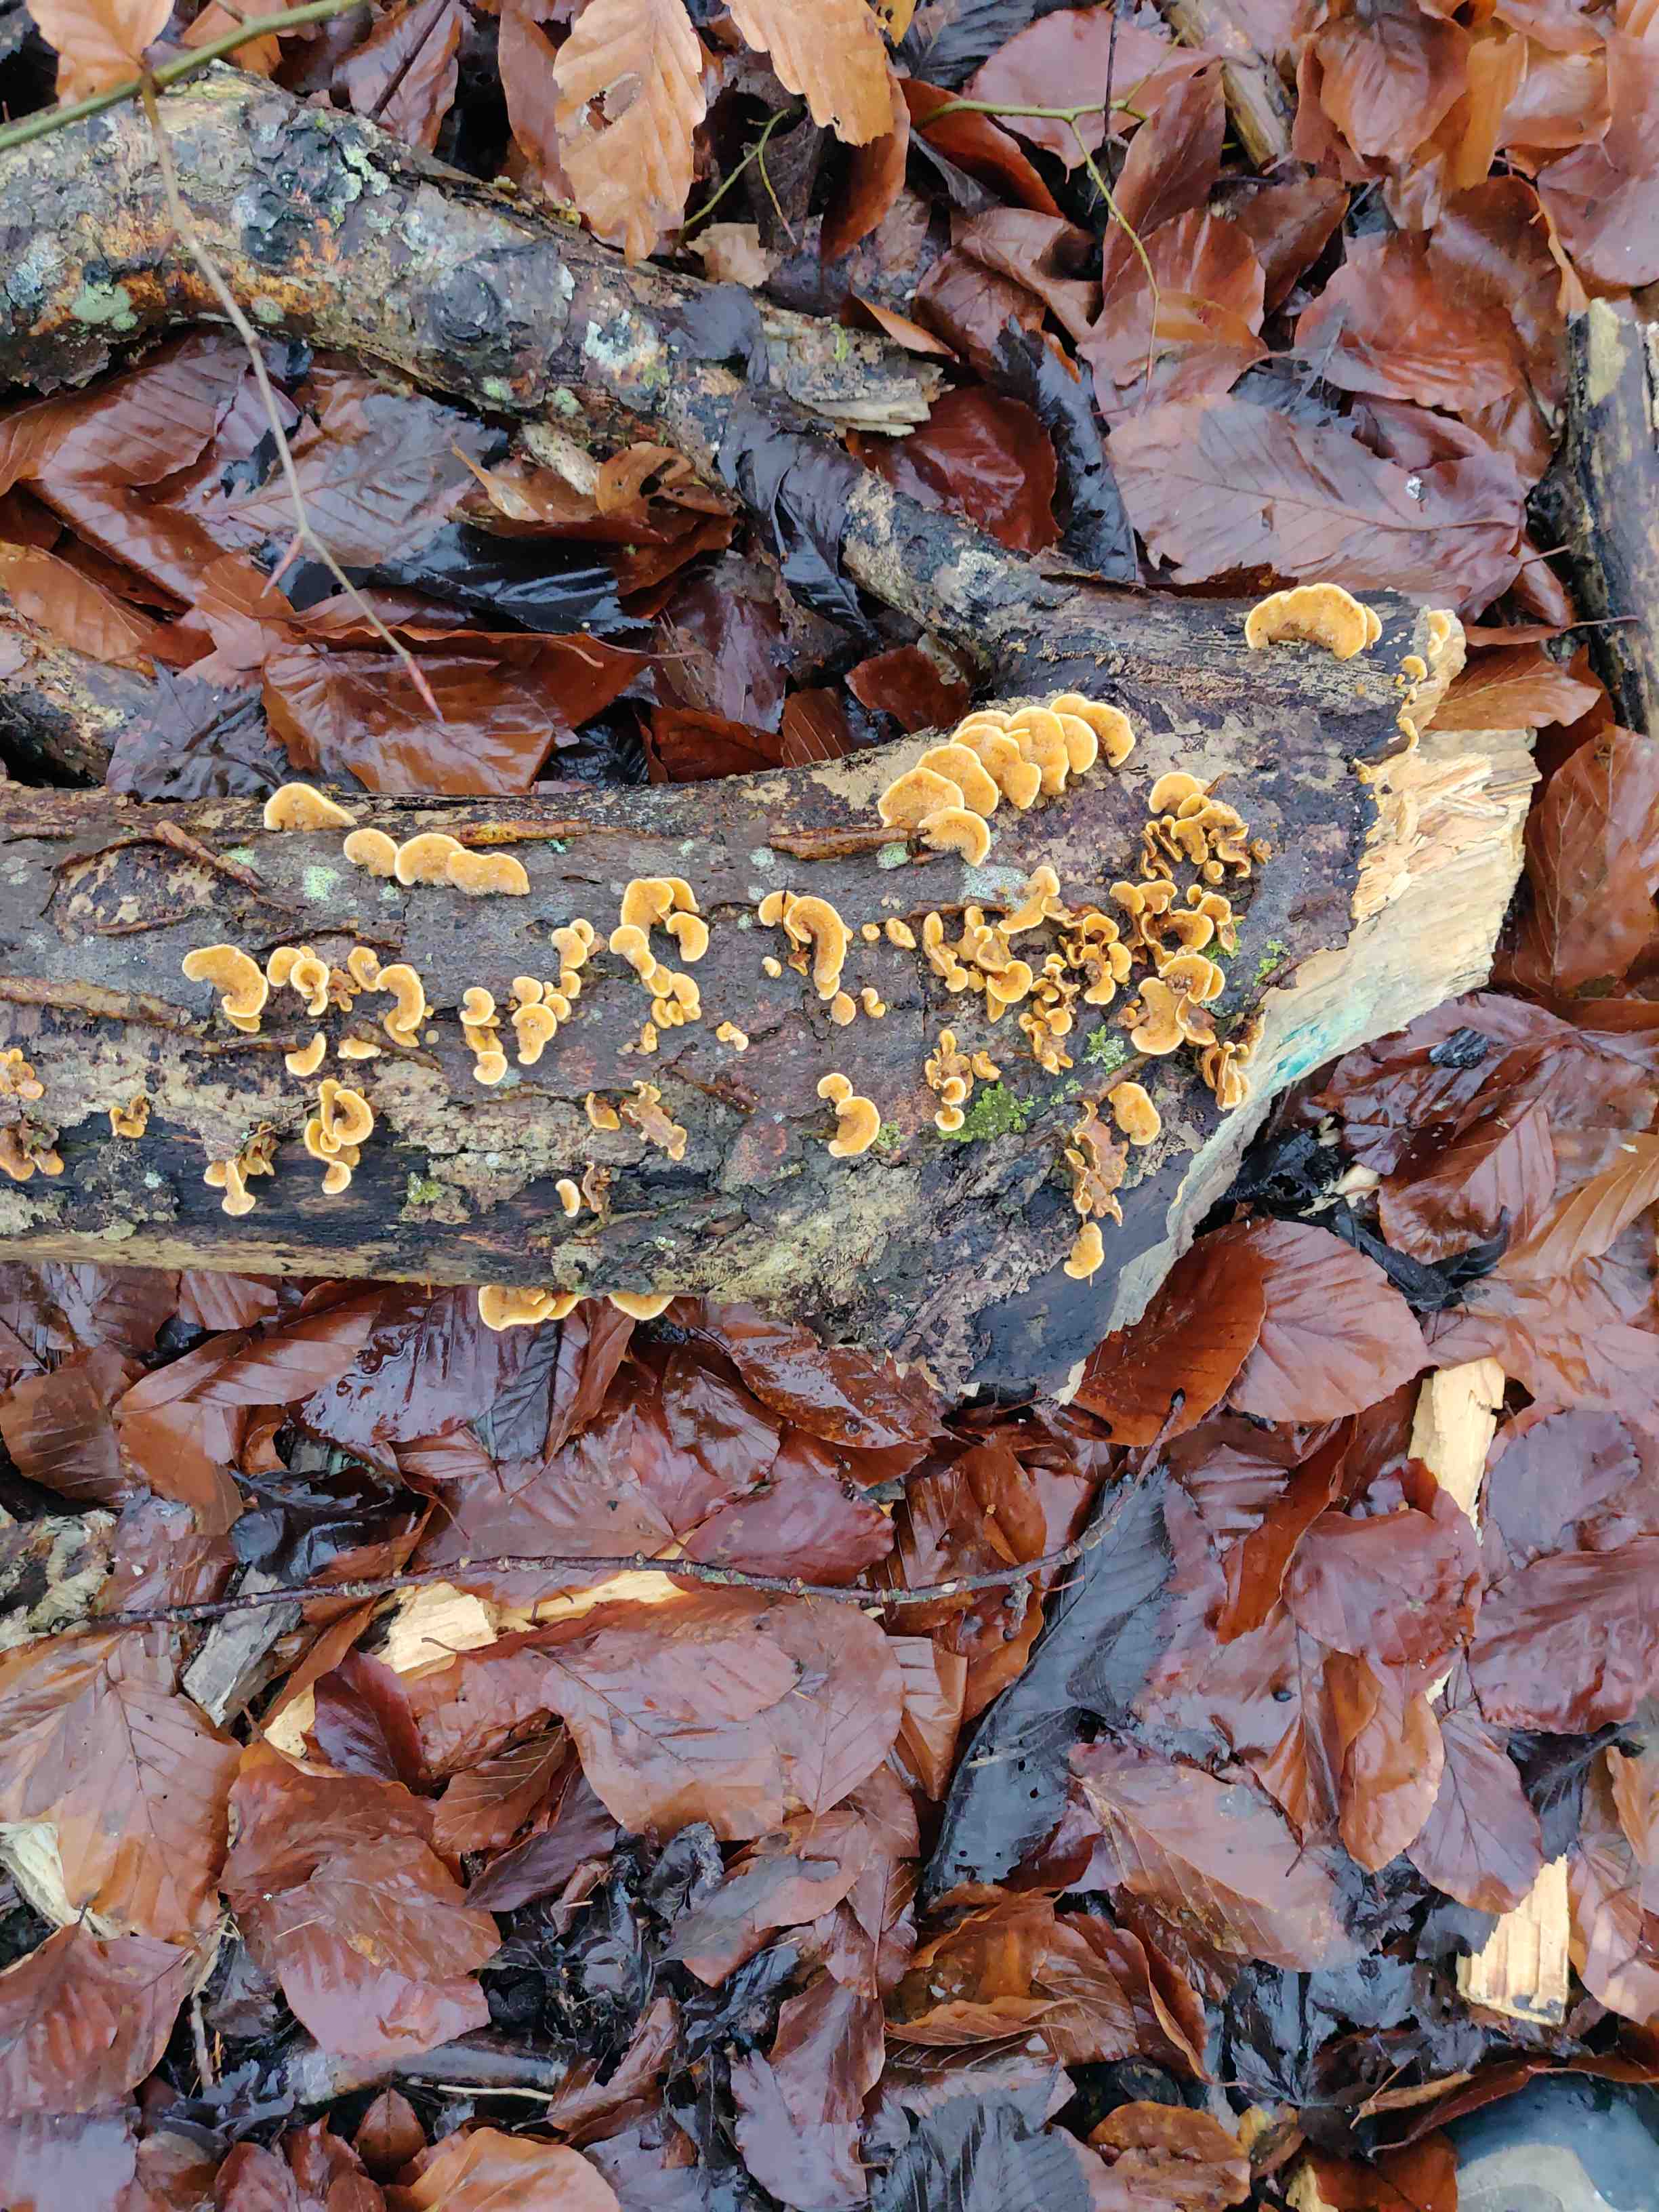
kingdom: Fungi
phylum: Basidiomycota
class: Agaricomycetes
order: Russulales
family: Stereaceae
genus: Stereum
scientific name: Stereum hirsutum
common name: håret lædersvamp
